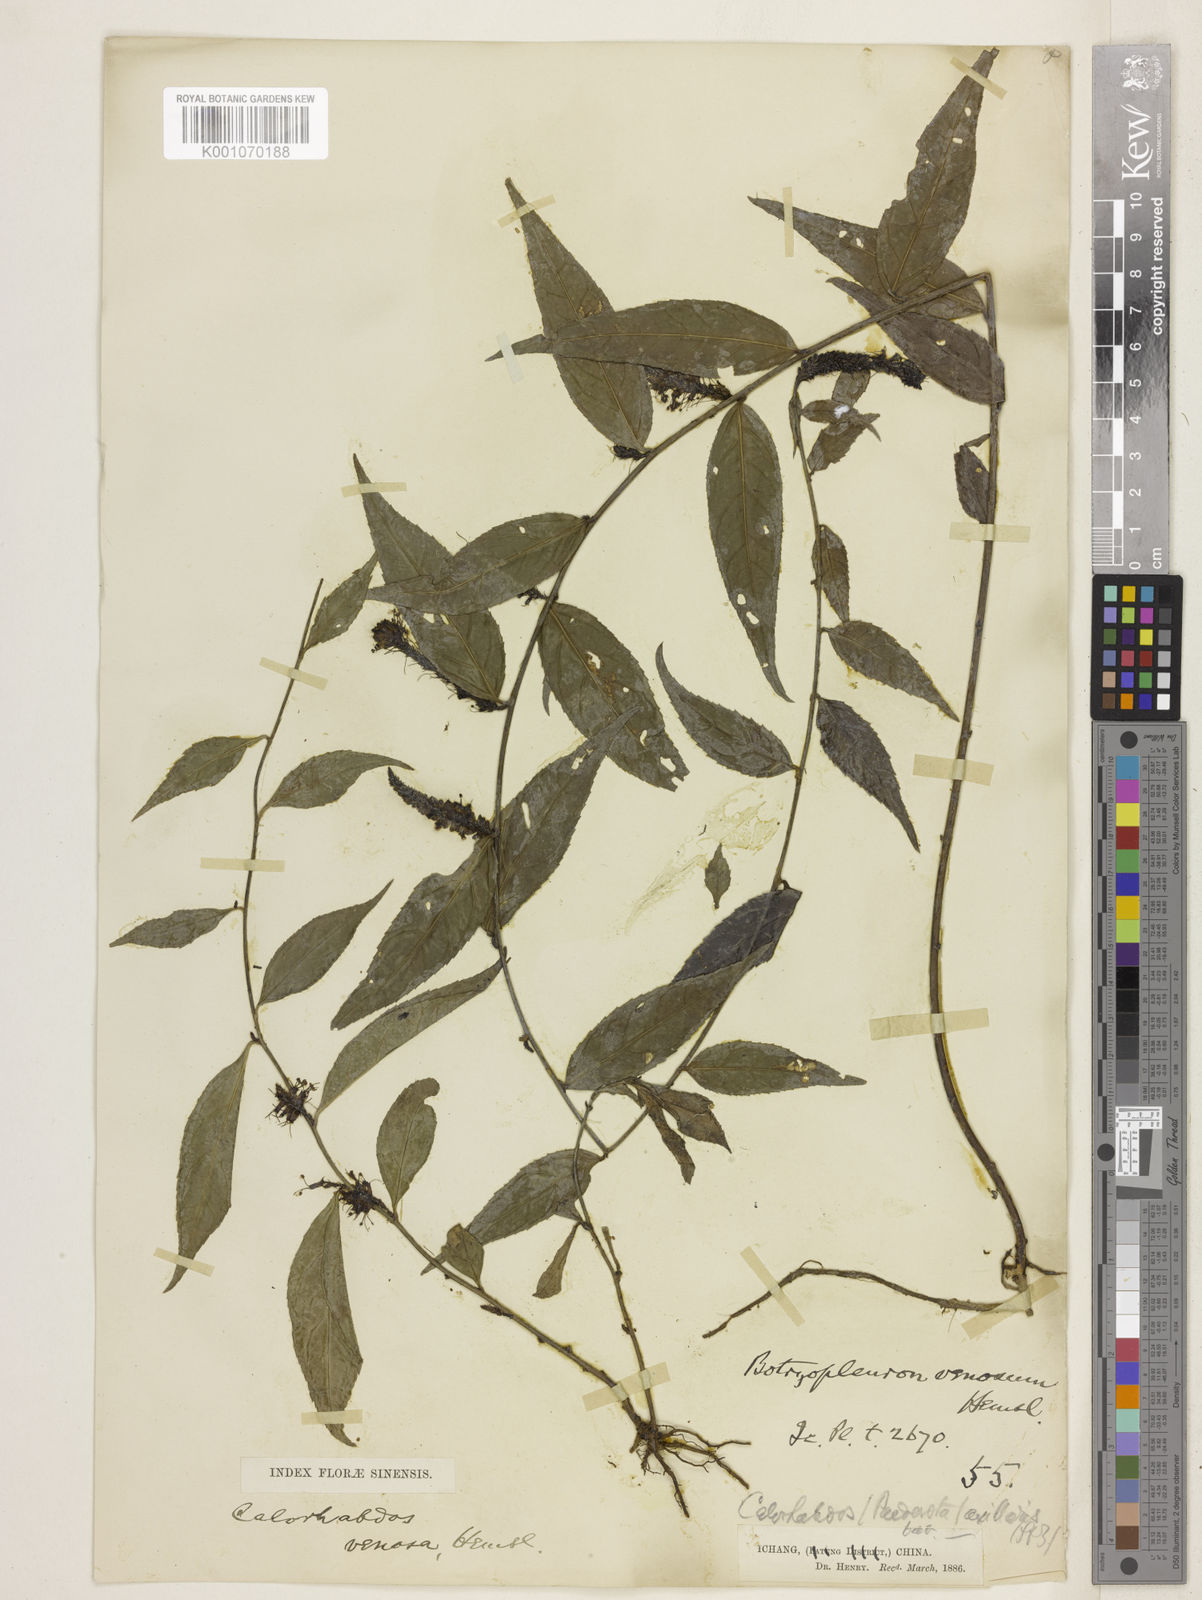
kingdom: Plantae
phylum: Tracheophyta
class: Magnoliopsida
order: Lamiales
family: Plantaginaceae
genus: Veronicastrum
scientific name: Veronicastrum stenostachyum
